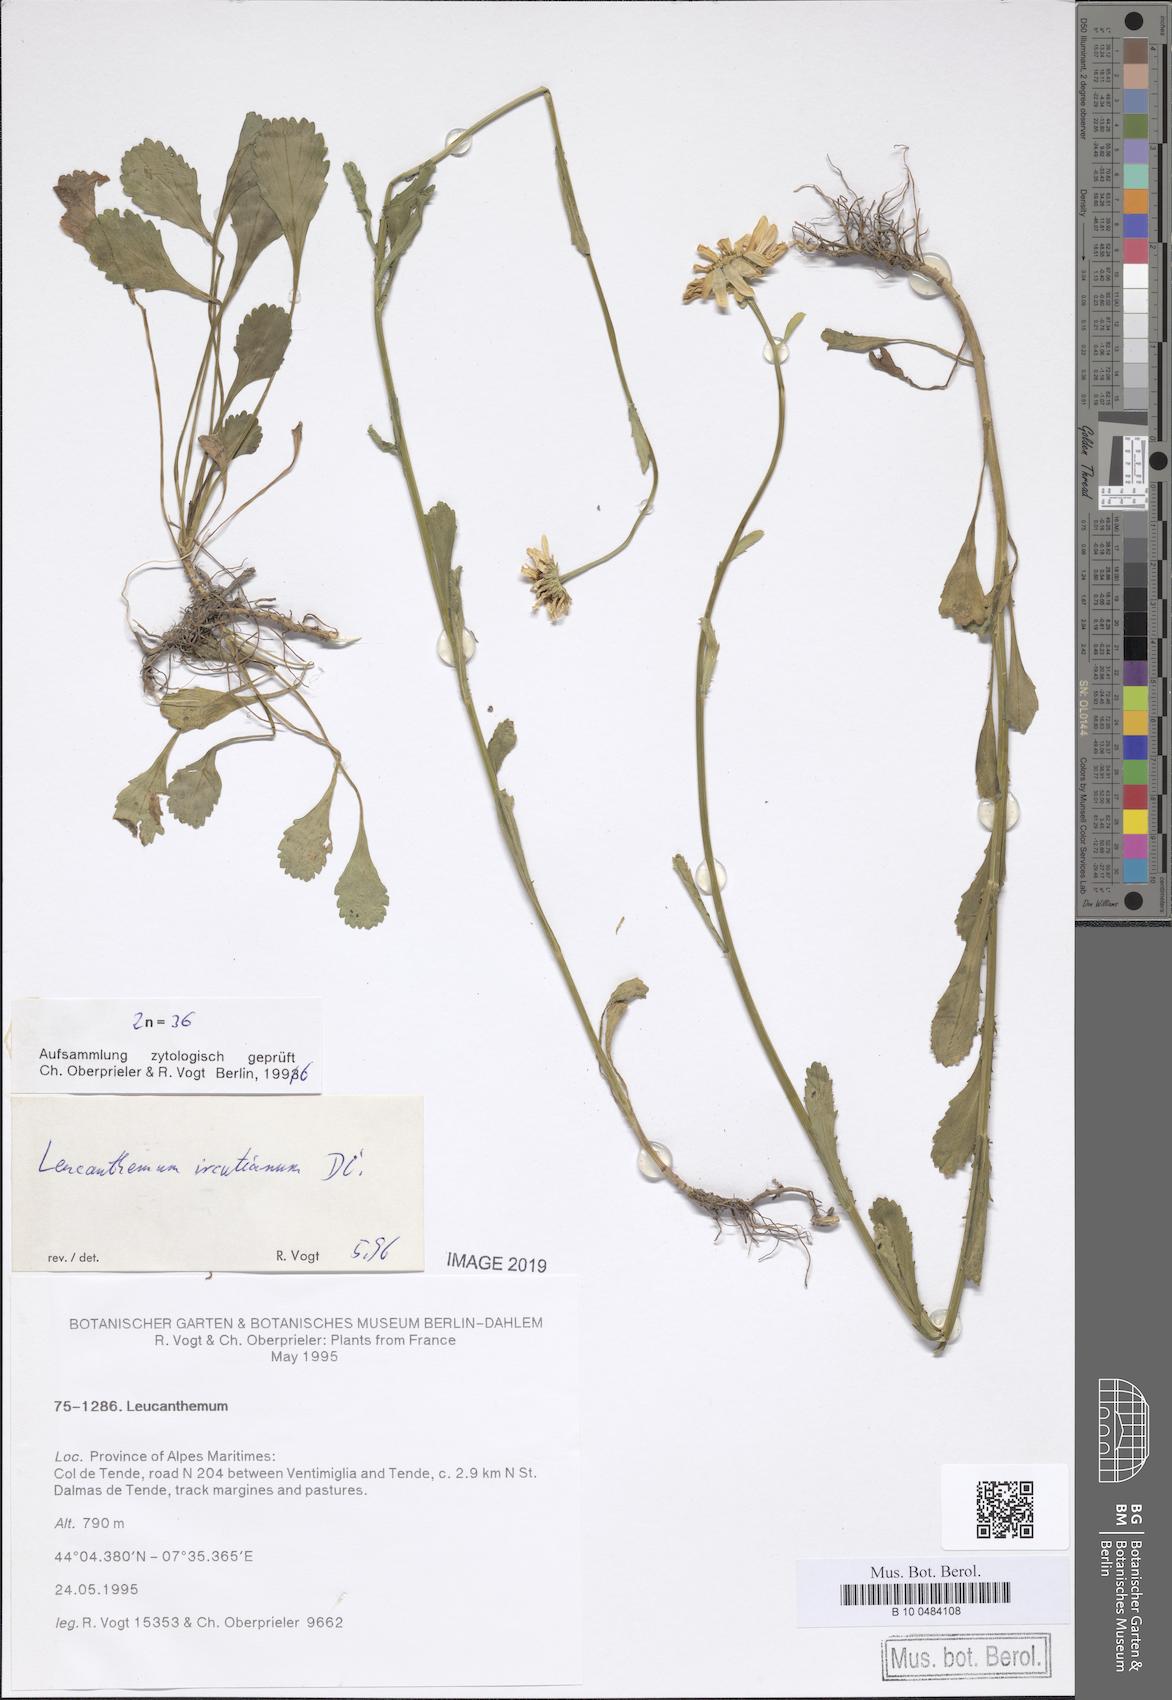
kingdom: Plantae
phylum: Tracheophyta
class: Magnoliopsida
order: Asterales
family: Asteraceae
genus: Leucanthemum
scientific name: Leucanthemum ircutianum
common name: Daisy
